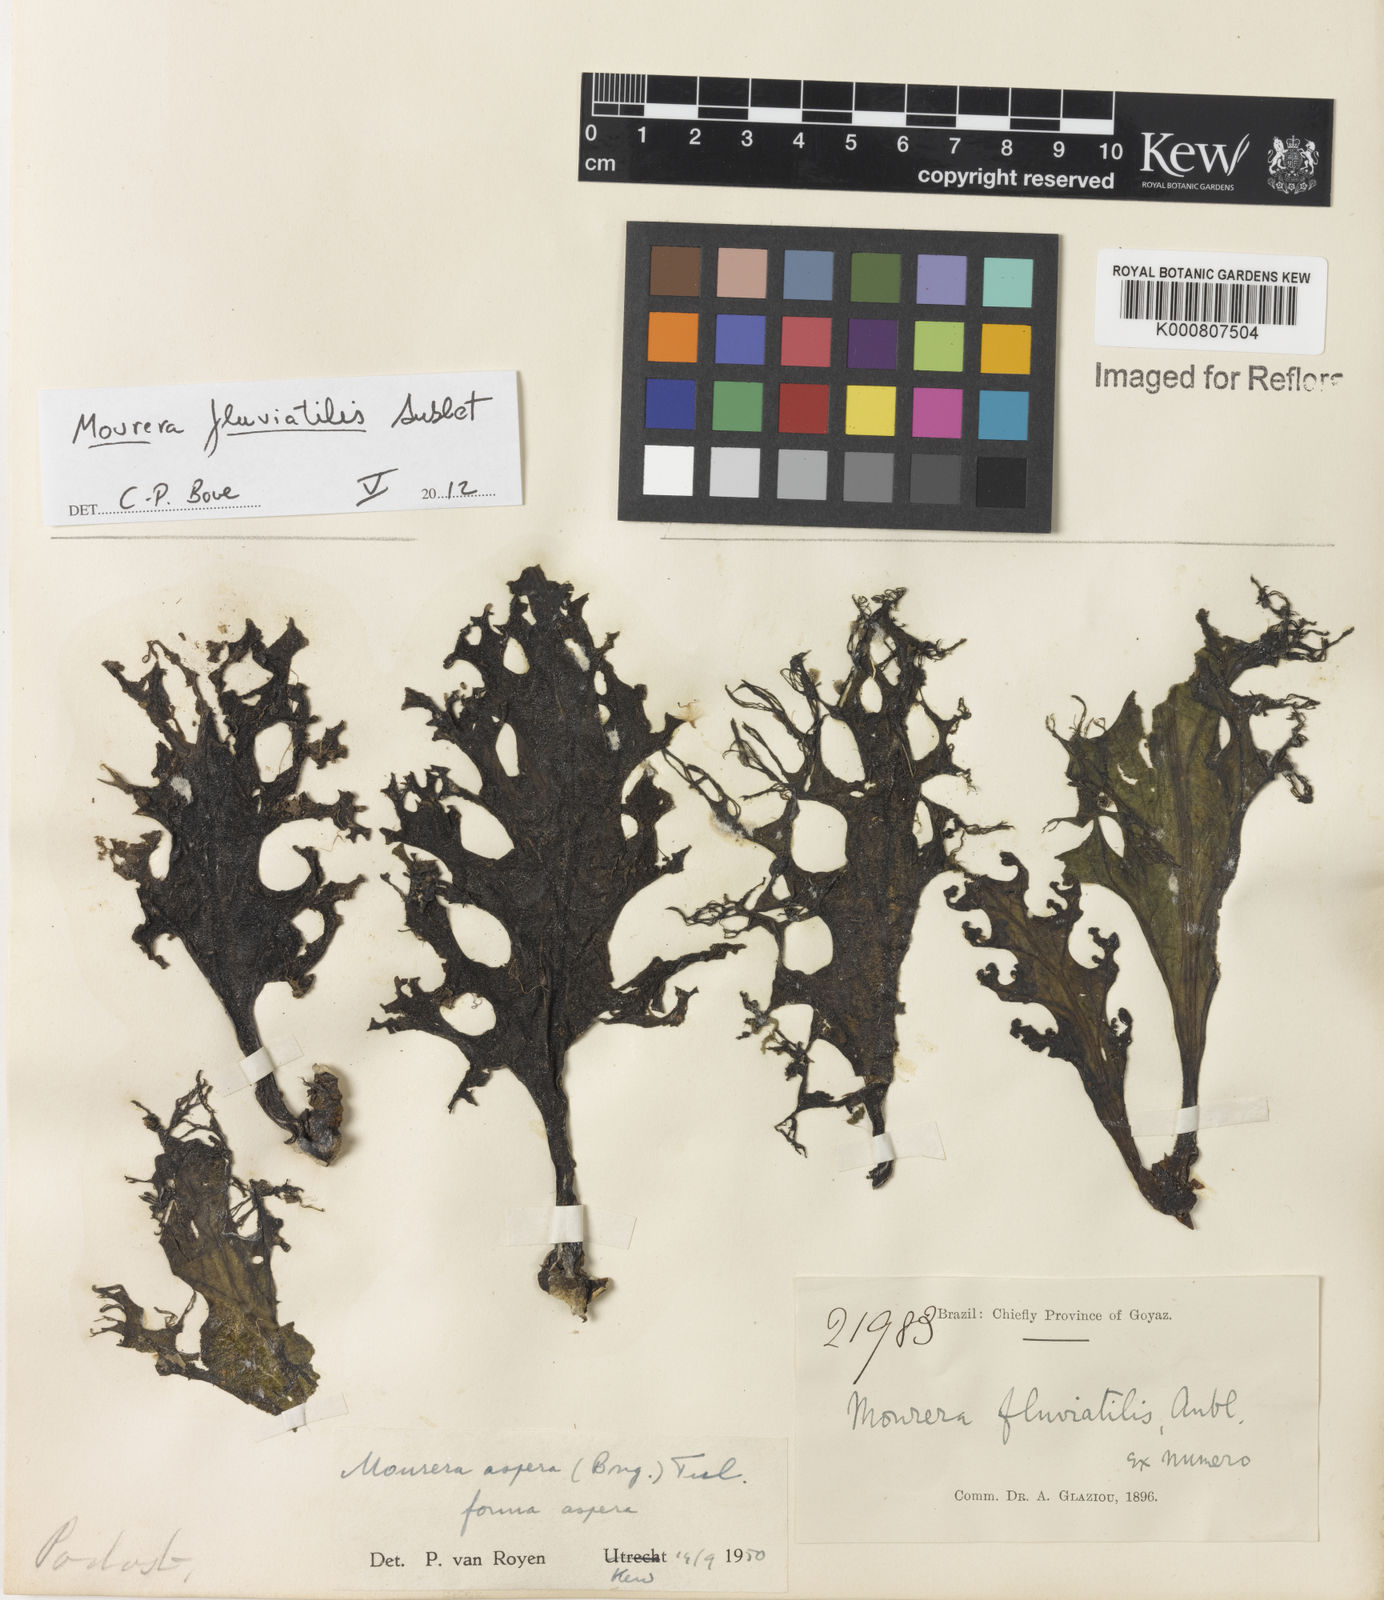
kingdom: Plantae
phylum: Tracheophyta
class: Magnoliopsida
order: Malpighiales
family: Podostemaceae
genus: Mourera
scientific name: Mourera fluviatilis
